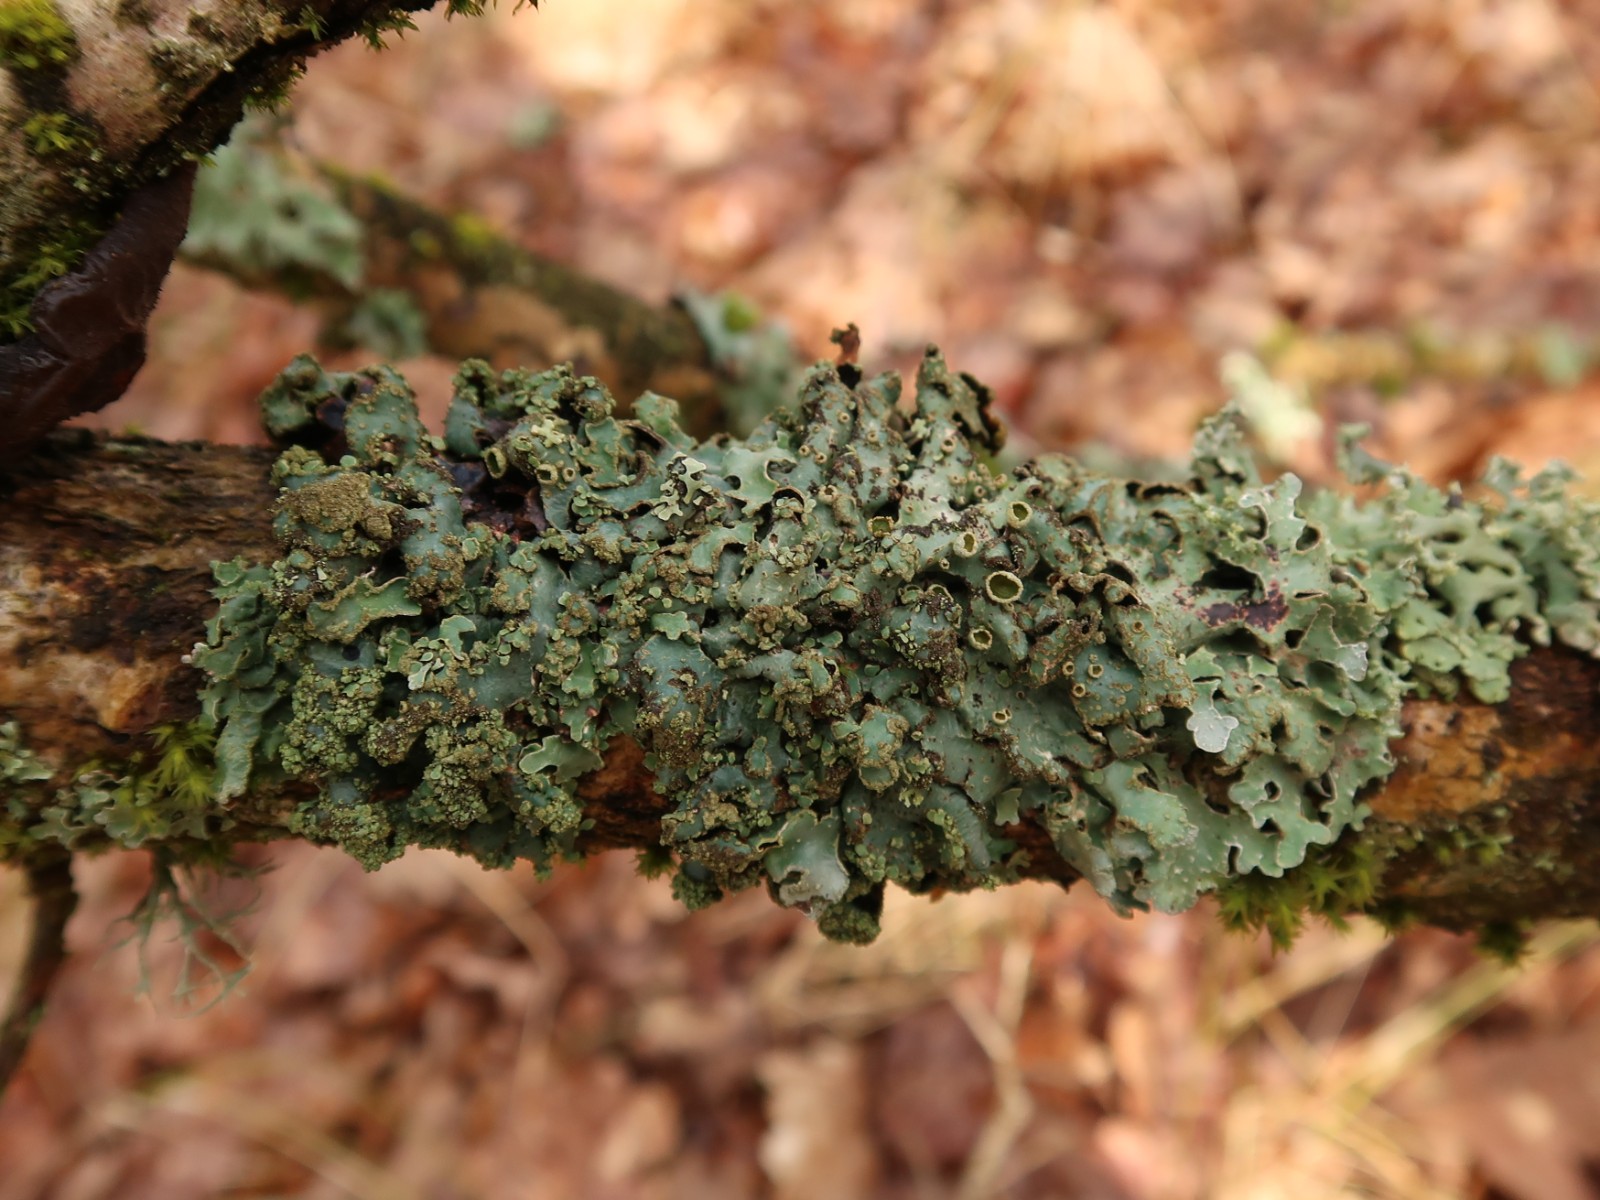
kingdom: Fungi
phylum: Ascomycota
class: Lecanoromycetes
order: Lecanorales
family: Parmeliaceae
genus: Parmelia
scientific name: Parmelia sulcata
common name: rynket skållav
